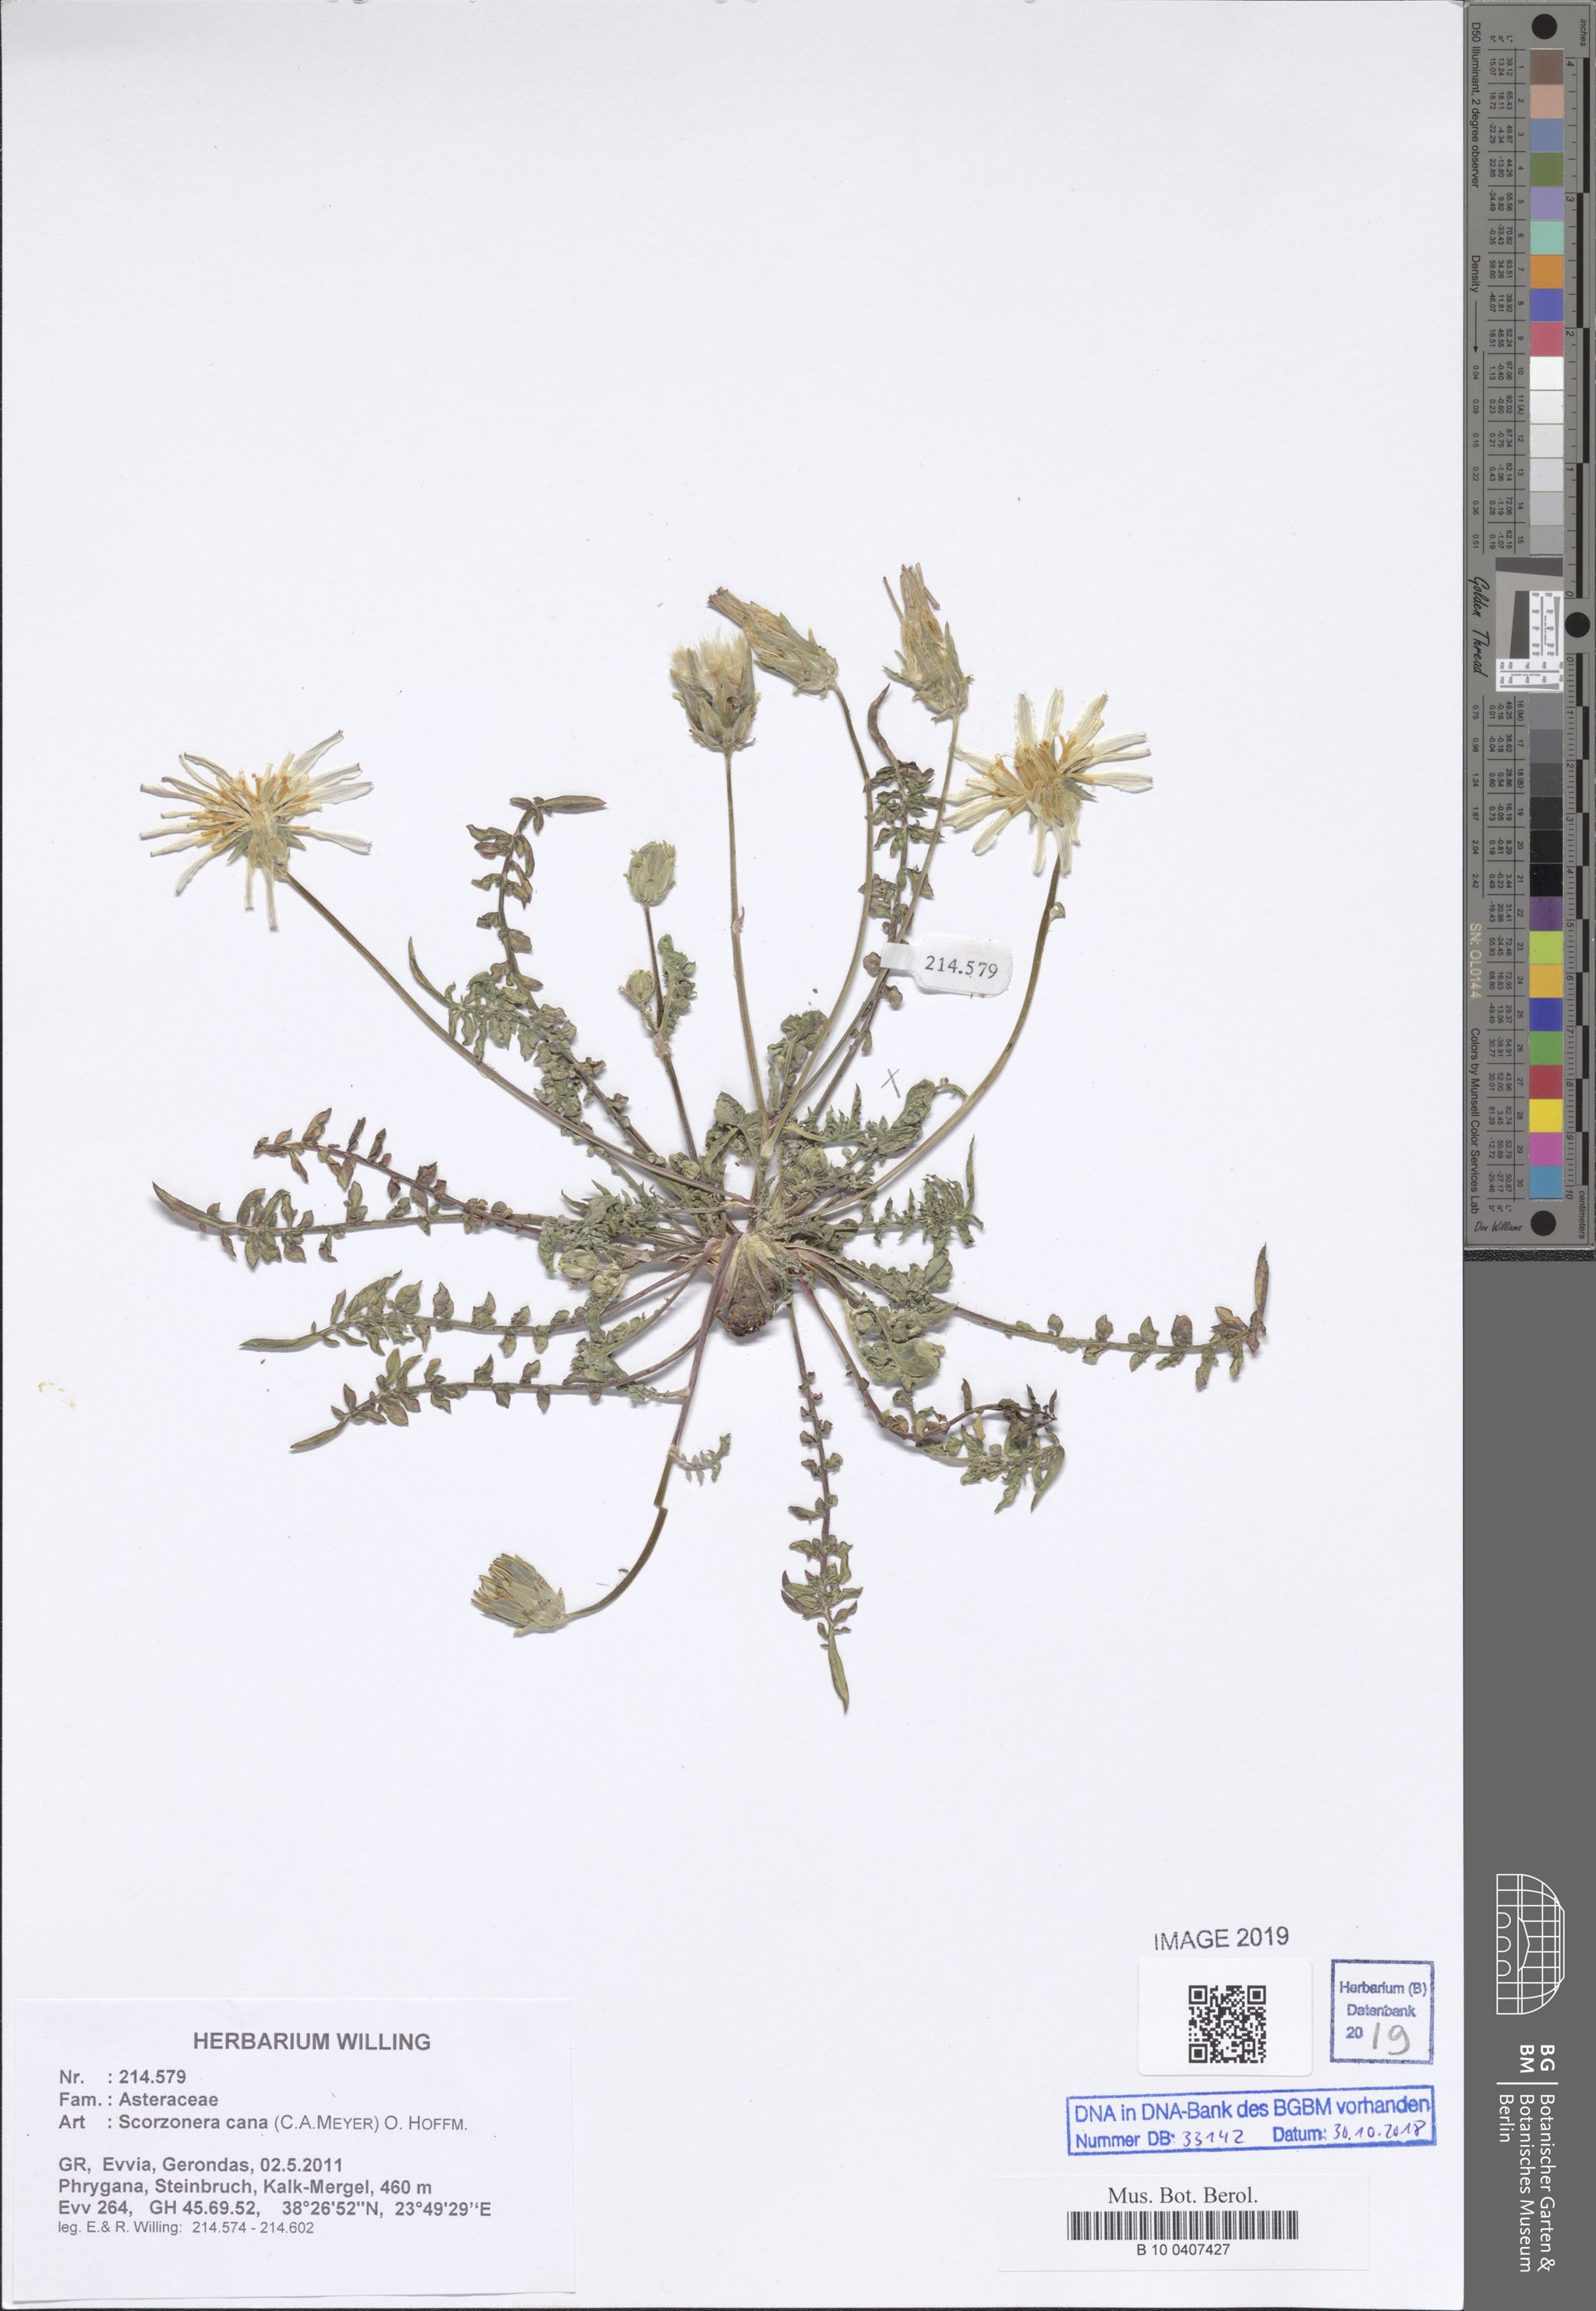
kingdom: Plantae
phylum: Tracheophyta
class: Magnoliopsida
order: Asterales
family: Asteraceae
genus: Scorzonera
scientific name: Scorzonera cana
